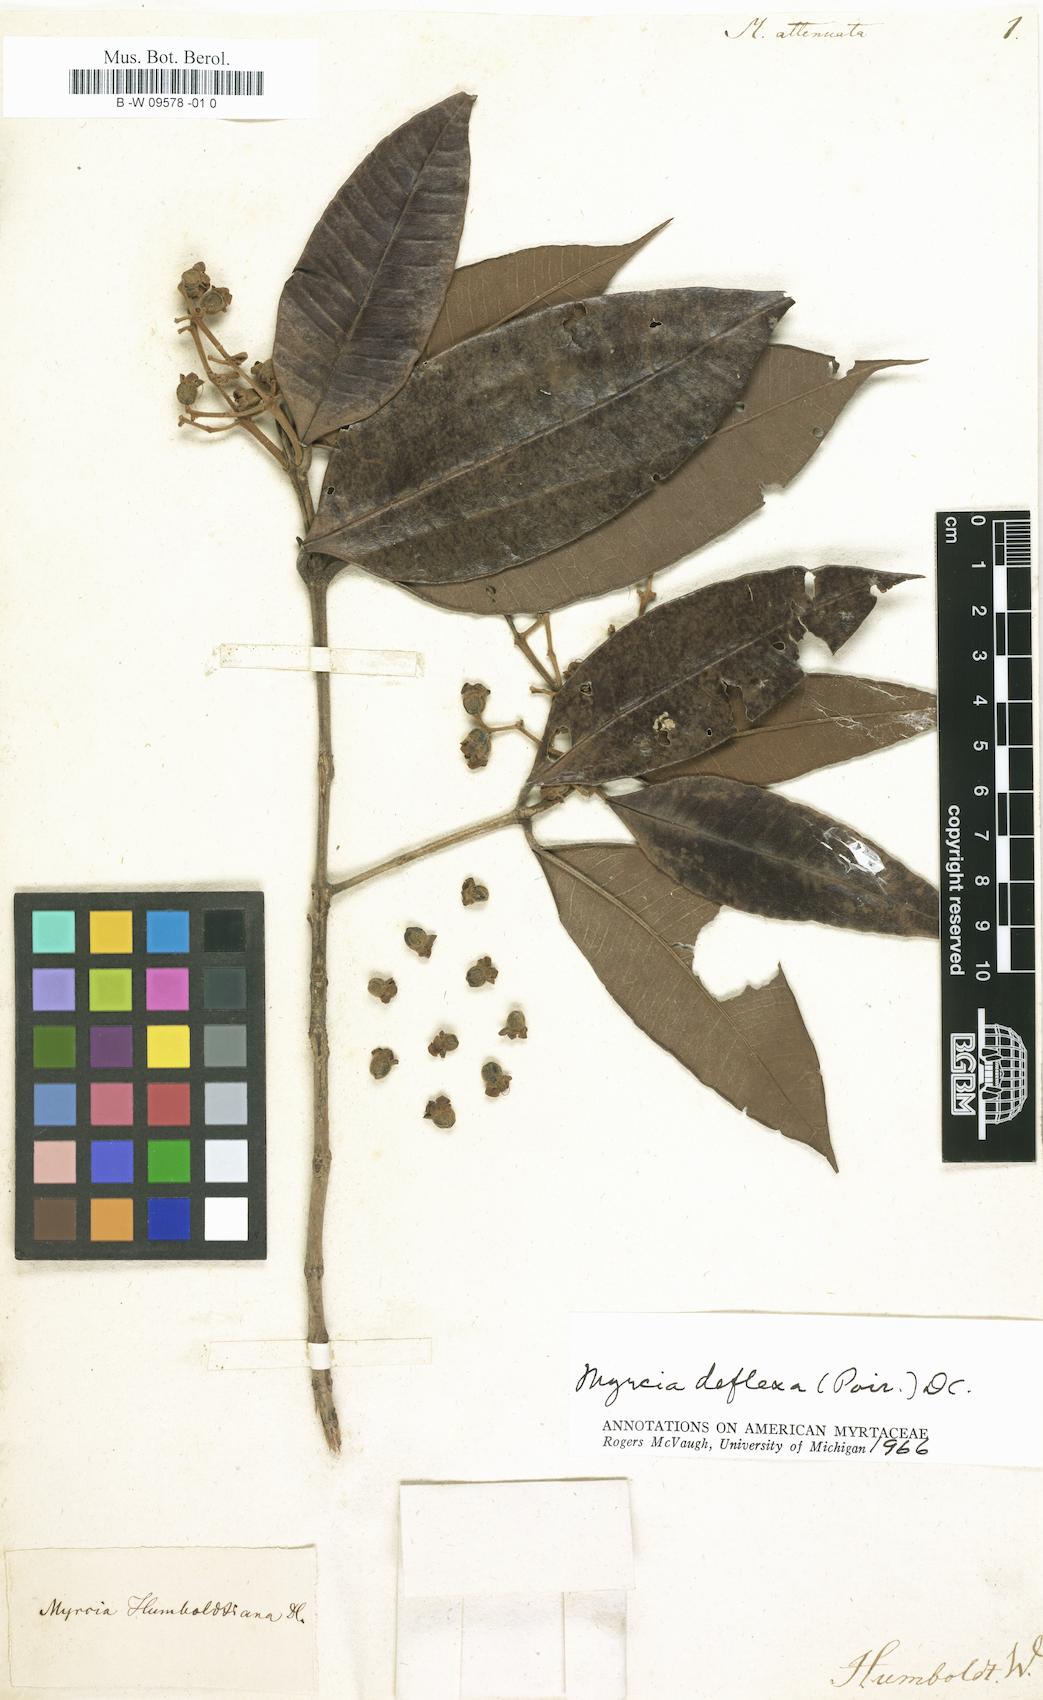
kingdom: Plantae
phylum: Tracheophyta
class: Magnoliopsida
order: Myrtales
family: Myrtaceae
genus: Myrtus
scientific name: Myrtus
